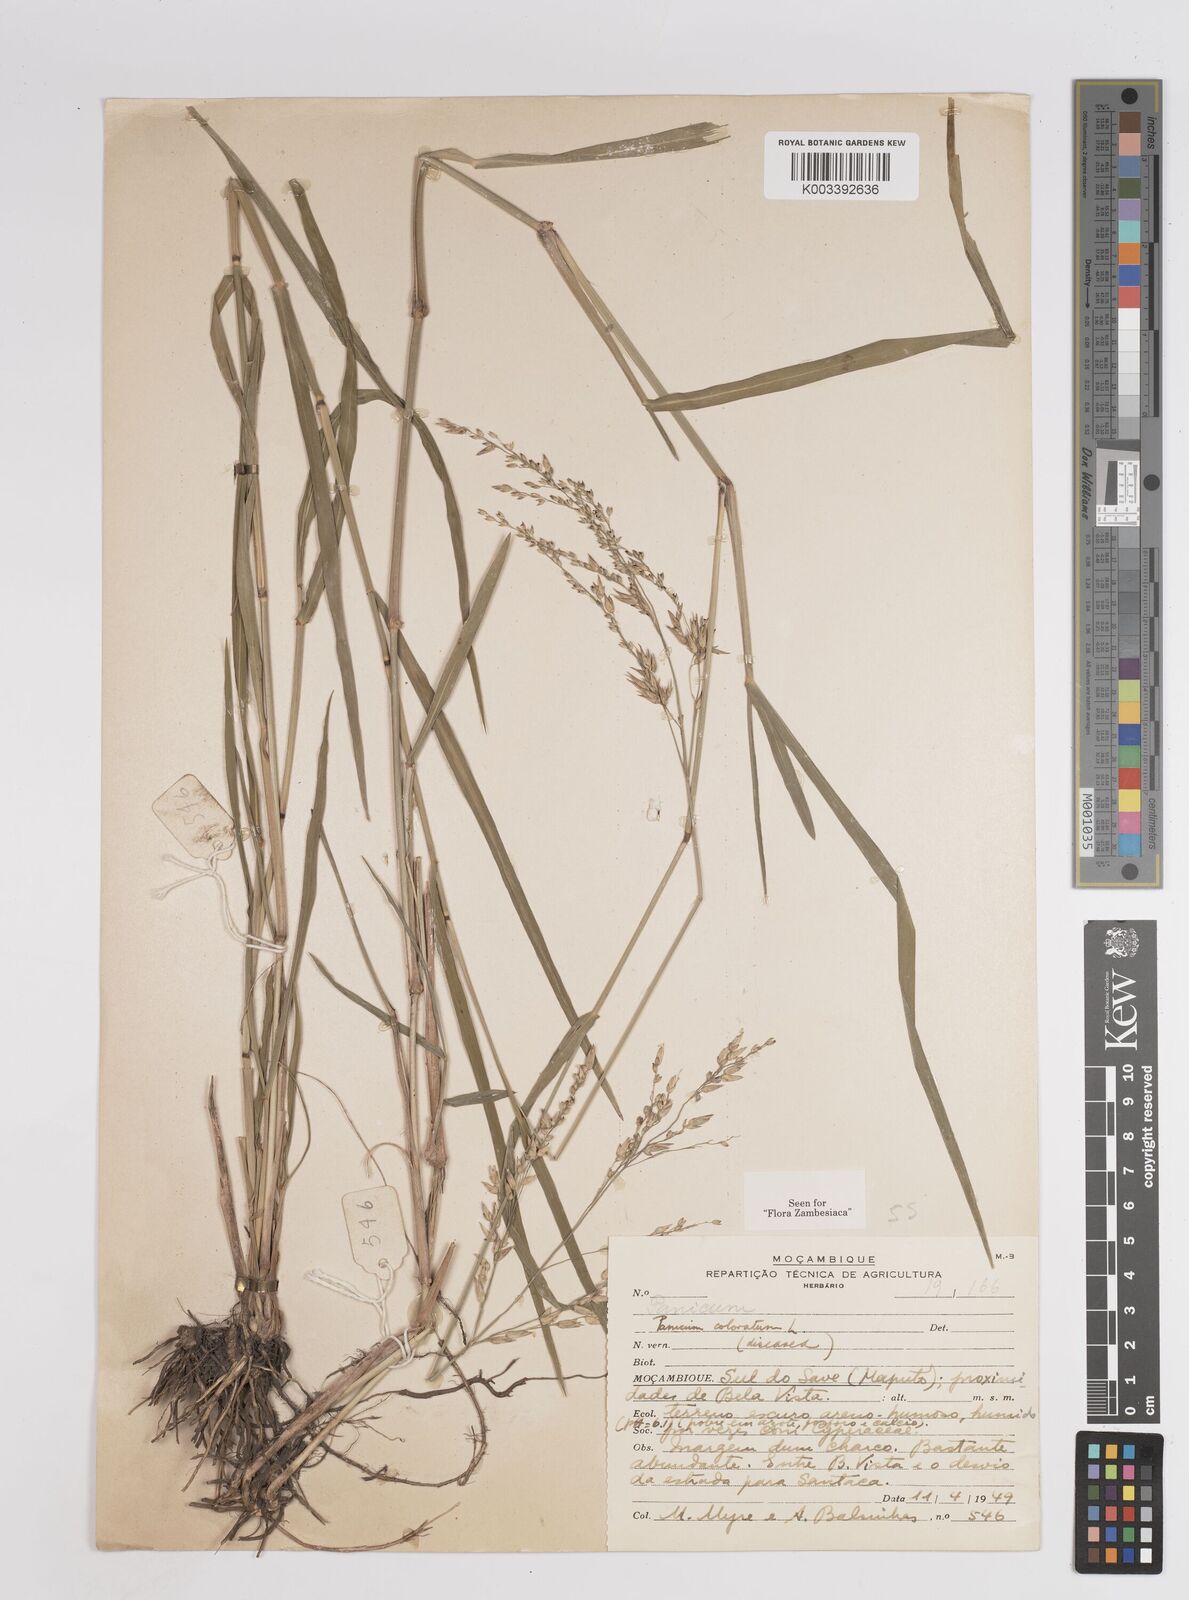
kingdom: Plantae
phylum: Tracheophyta
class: Liliopsida
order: Poales
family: Poaceae
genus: Panicum
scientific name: Panicum
